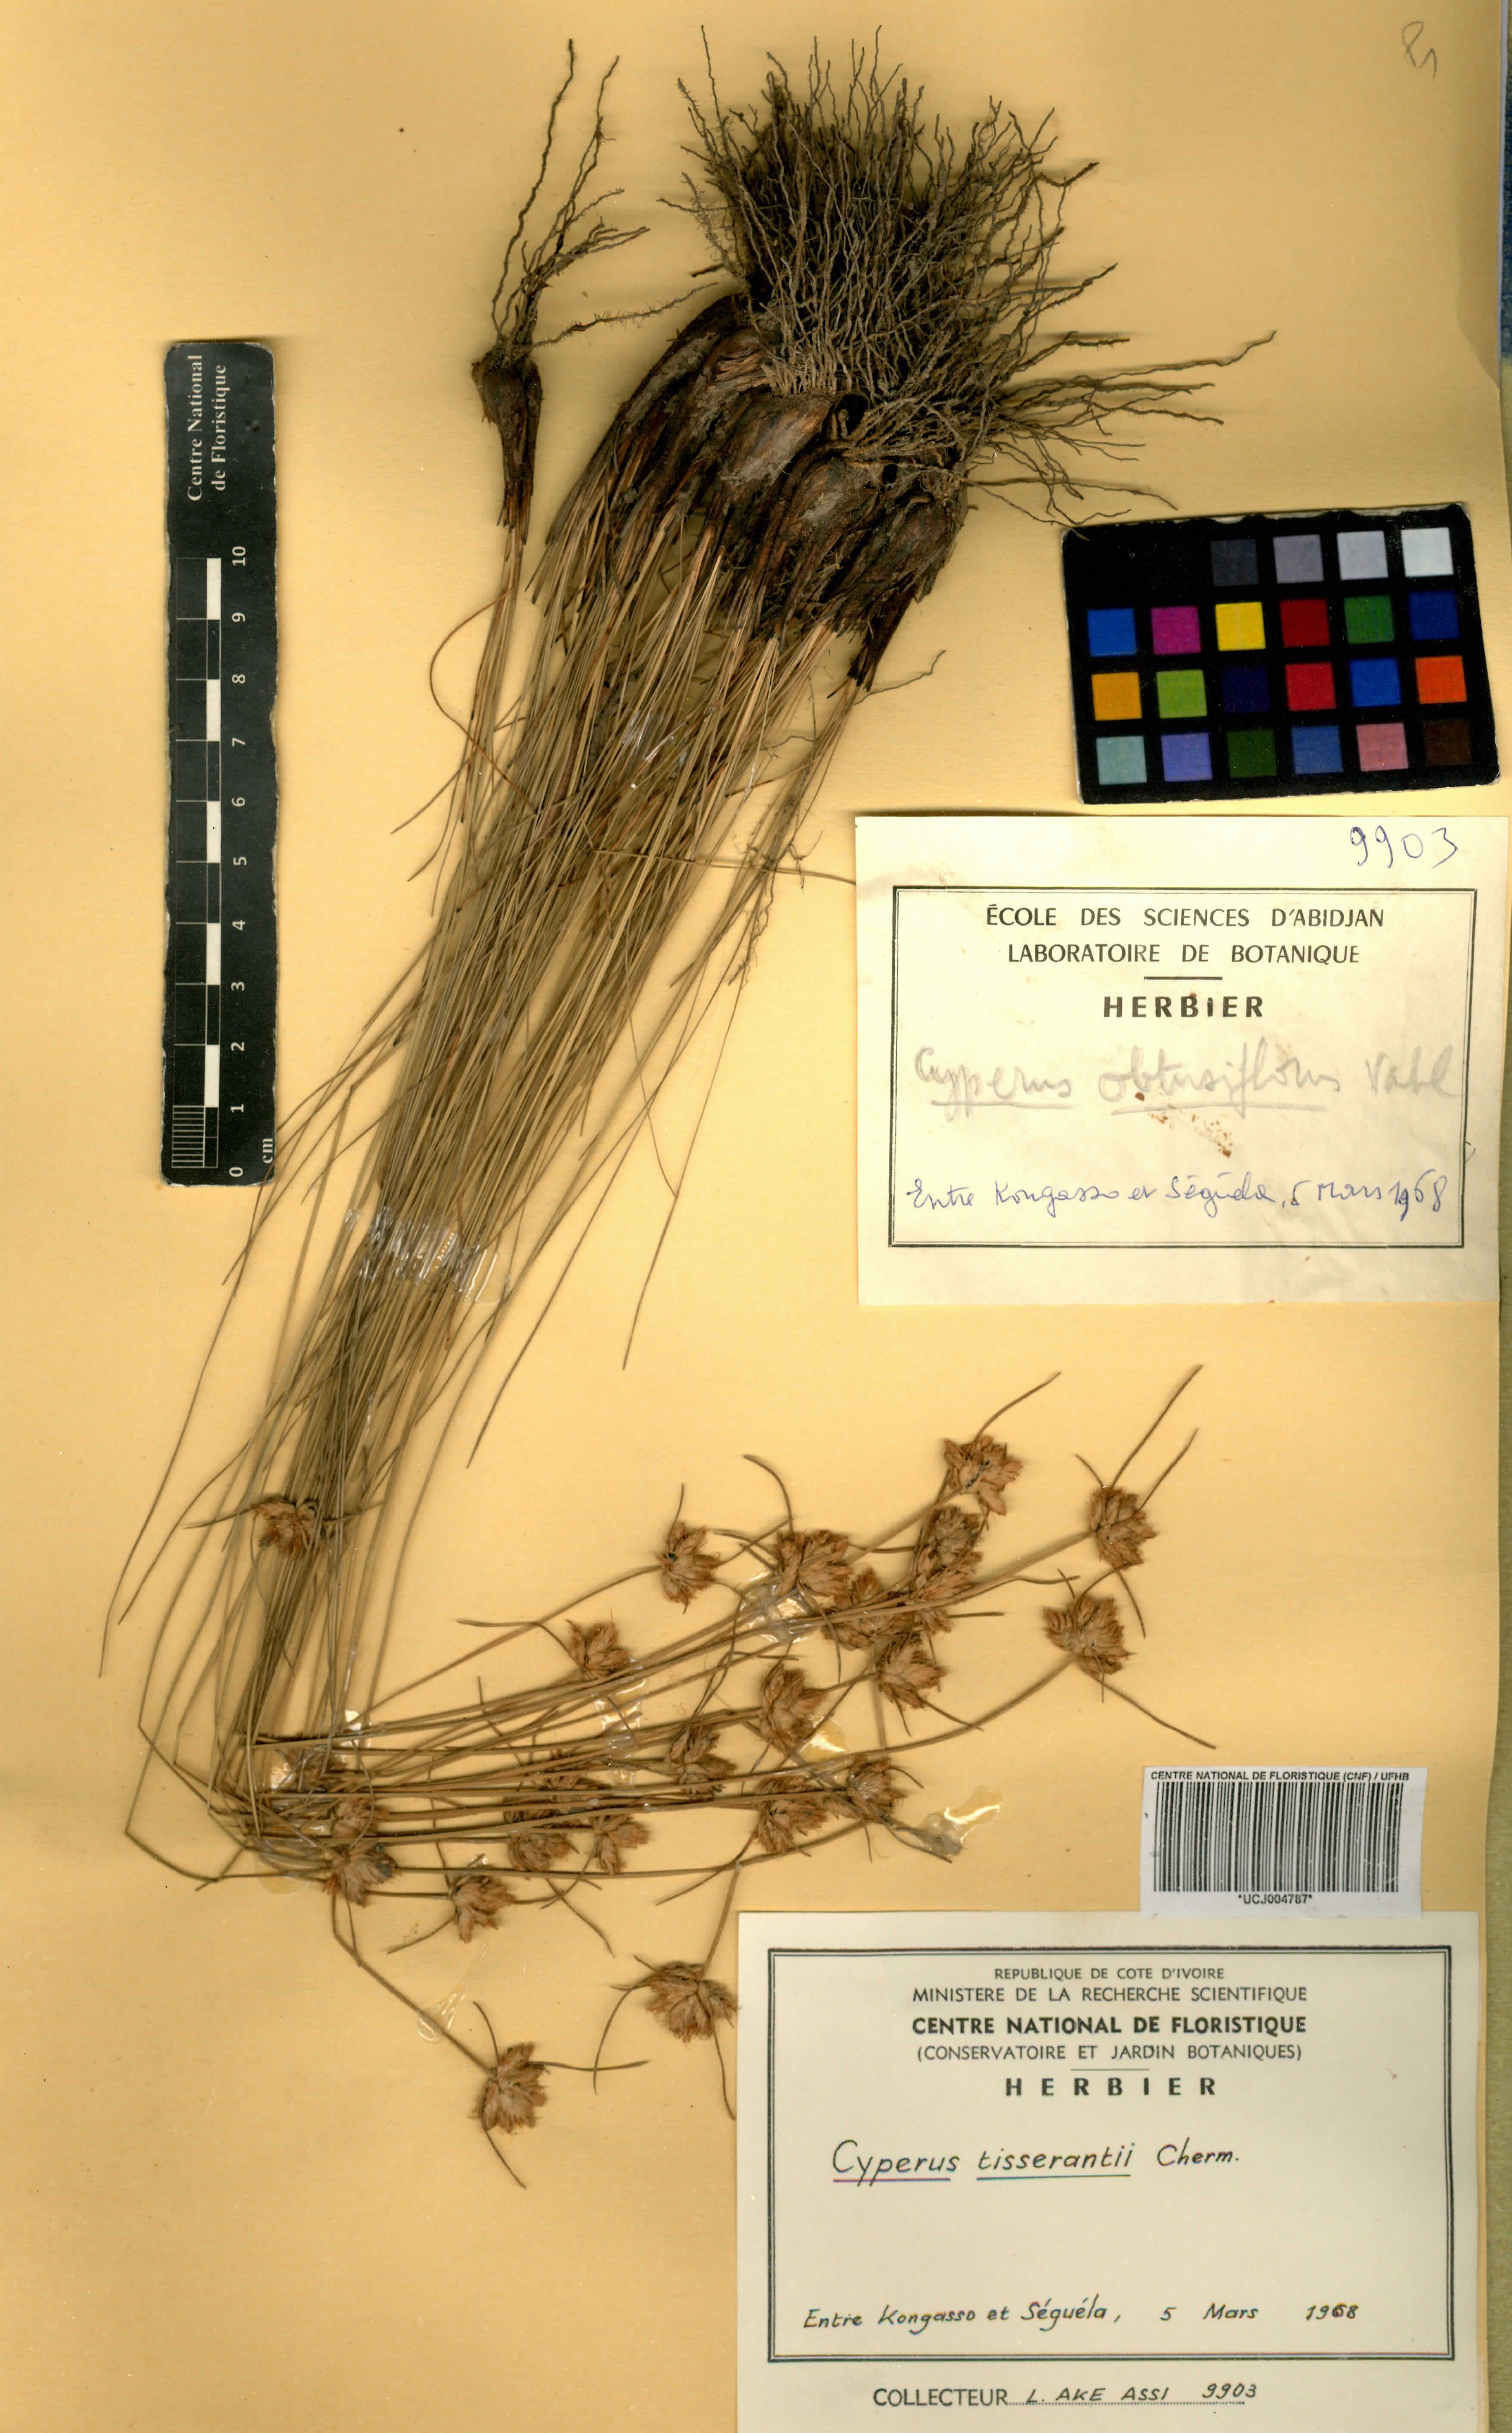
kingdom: Plantae
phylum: Tracheophyta
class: Liliopsida
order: Poales
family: Cyperaceae
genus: Cyperus
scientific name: Cyperus niveus
